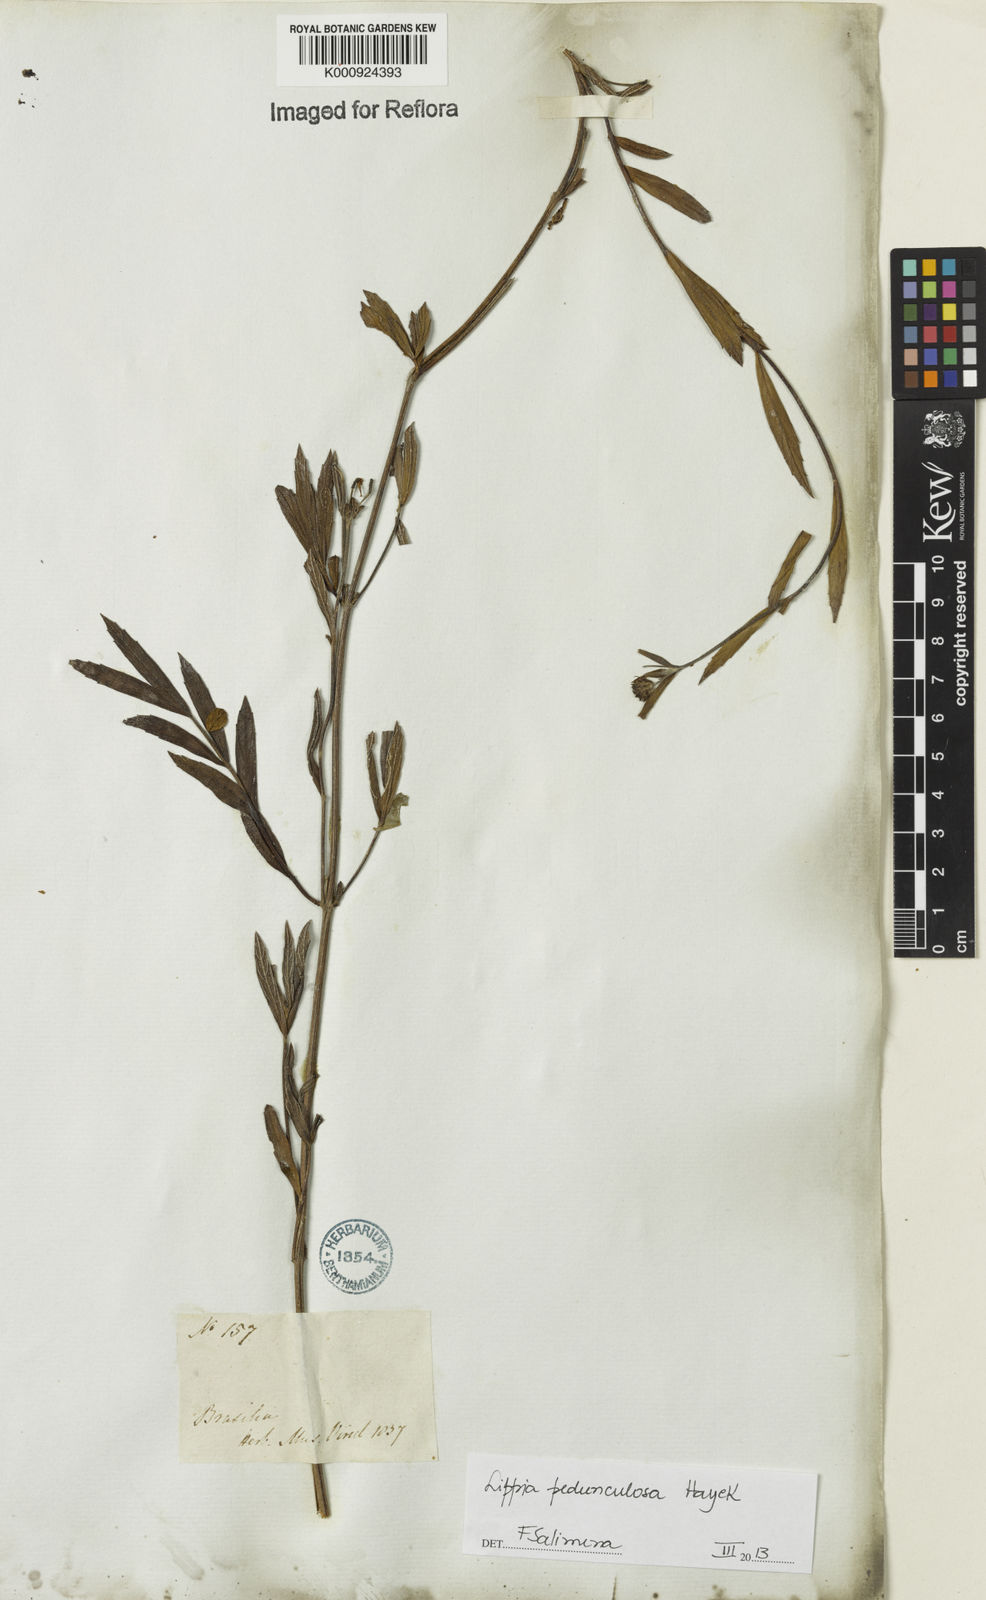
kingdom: Plantae
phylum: Tracheophyta
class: Magnoliopsida
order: Lamiales
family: Verbenaceae
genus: Lippia
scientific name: Lippia pedunculosa
